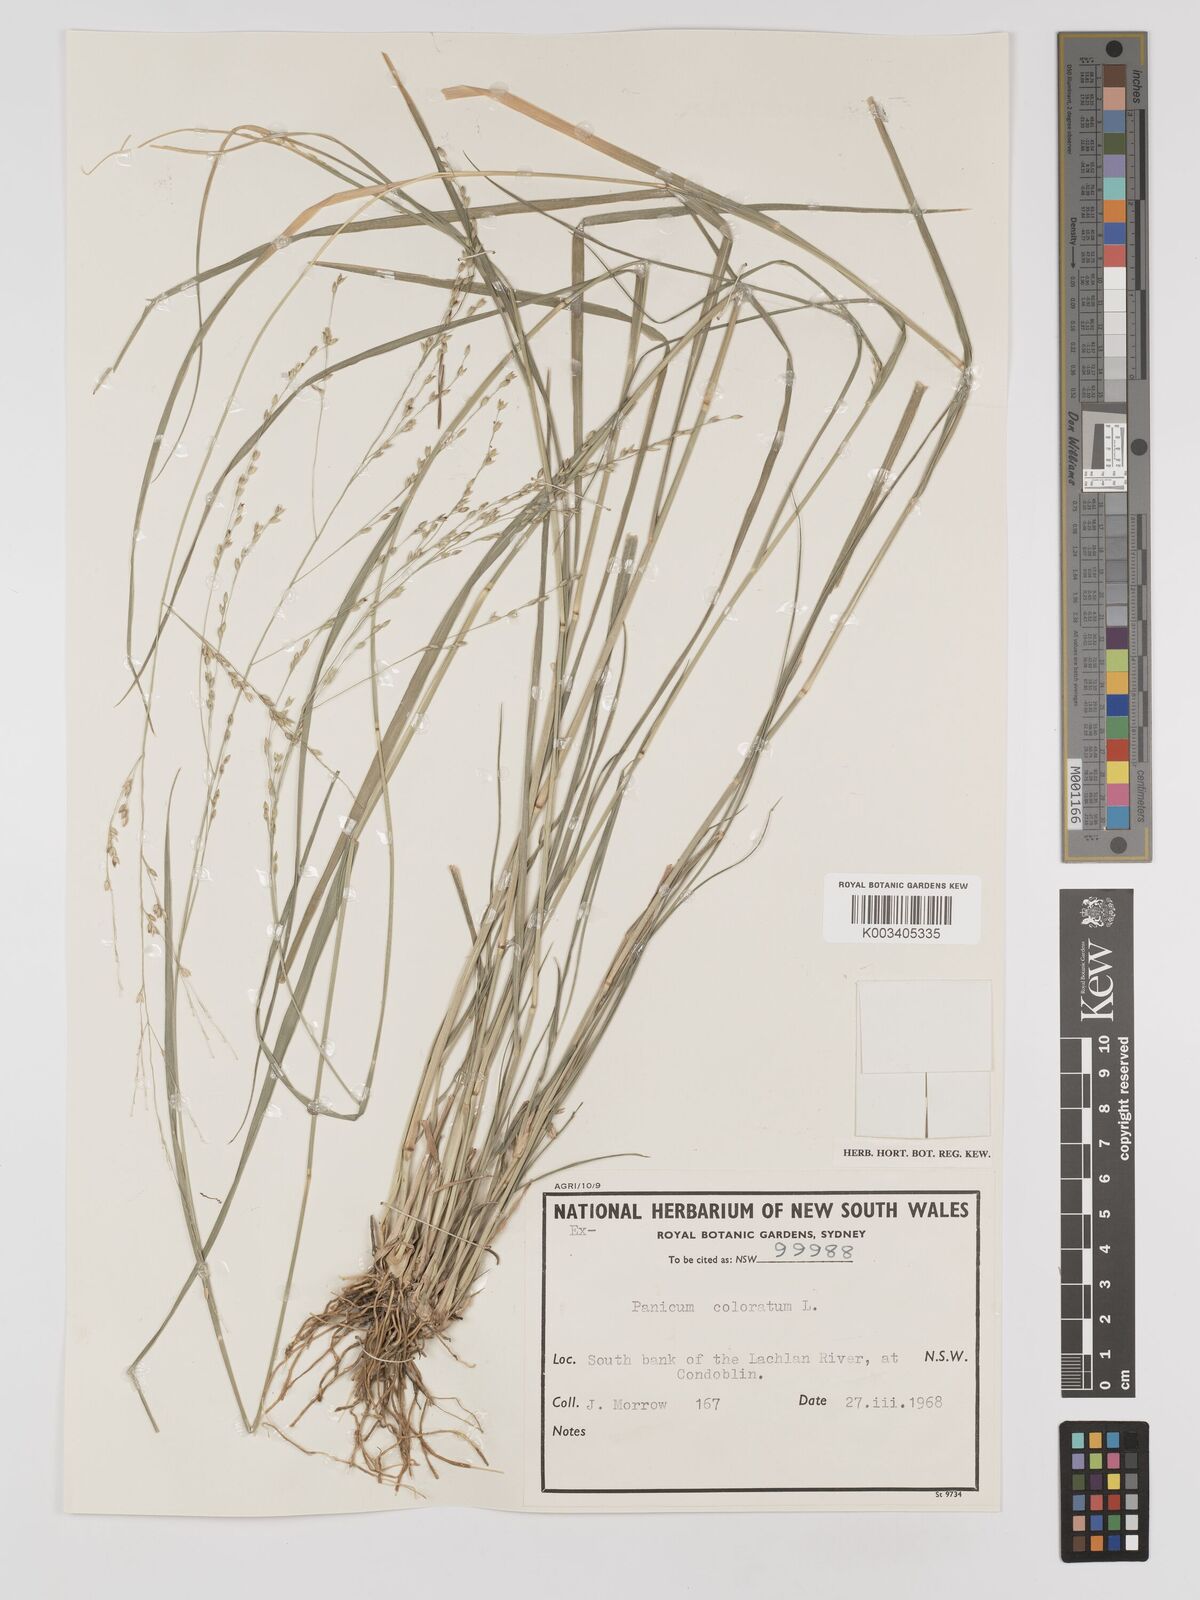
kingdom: Plantae
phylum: Tracheophyta
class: Liliopsida
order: Poales
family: Poaceae
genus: Panicum
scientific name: Panicum coloratum
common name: Kleingrass
